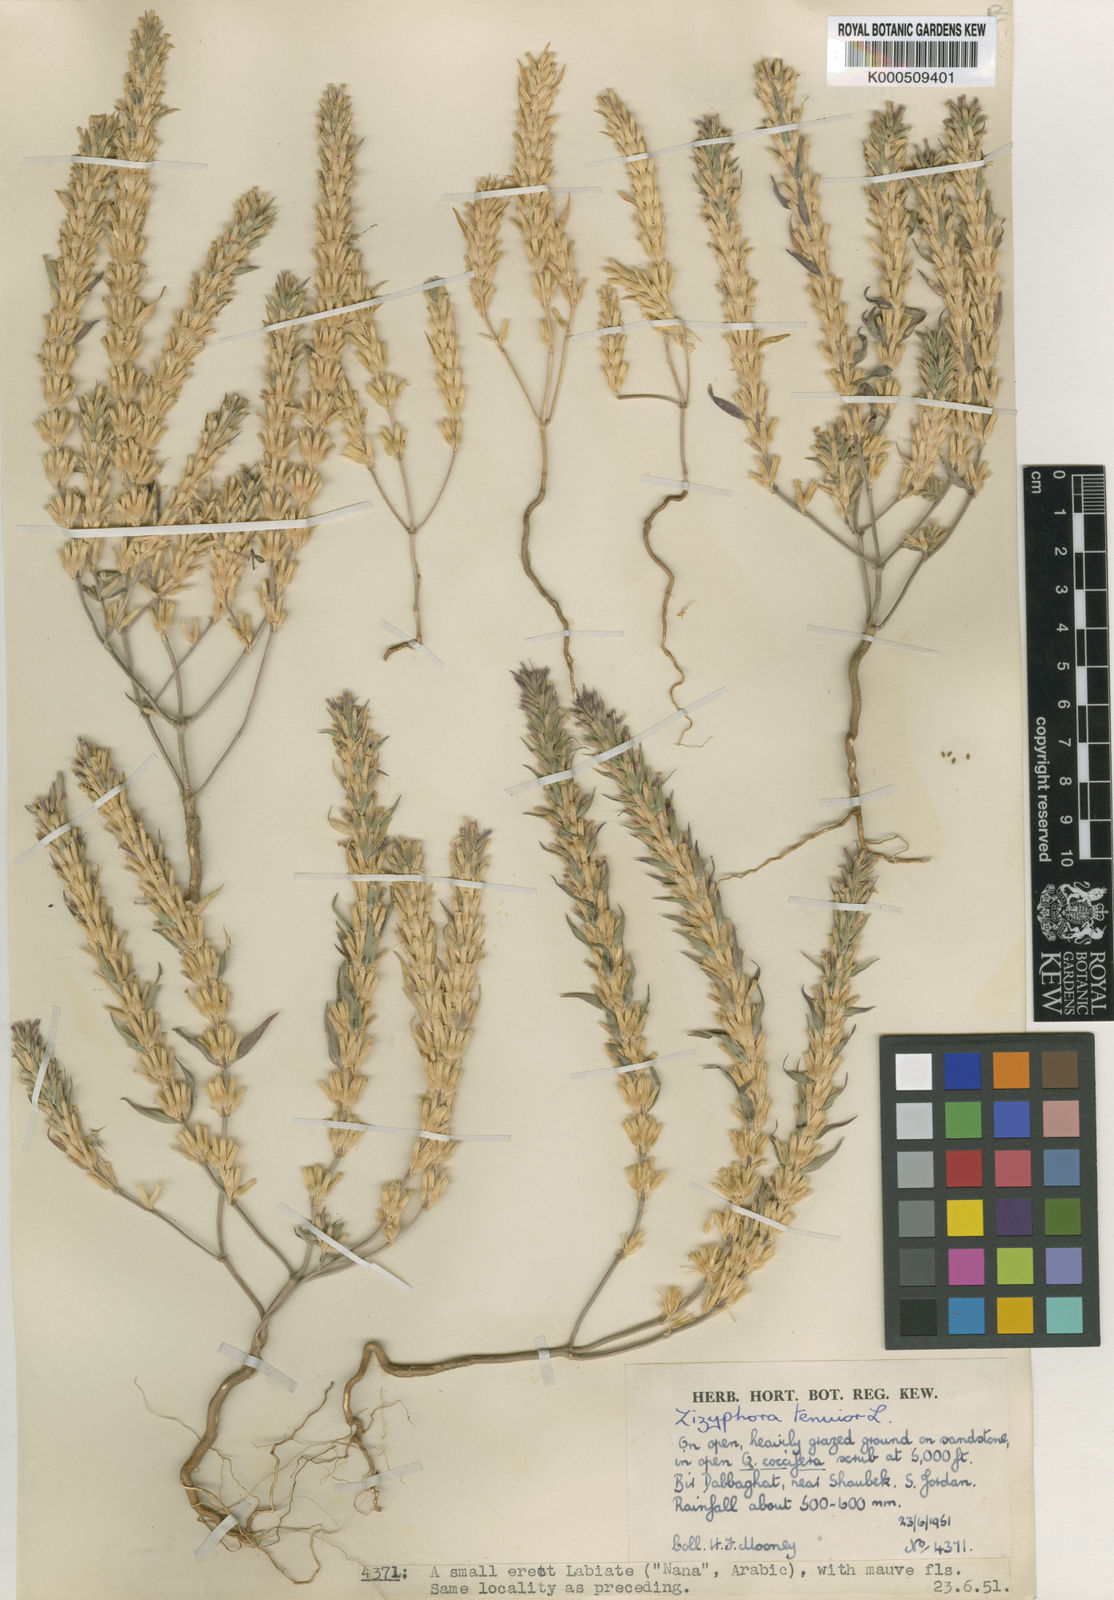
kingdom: Plantae
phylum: Tracheophyta
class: Magnoliopsida
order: Lamiales
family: Lamiaceae
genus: Ziziphora
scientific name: Ziziphora tenuior
